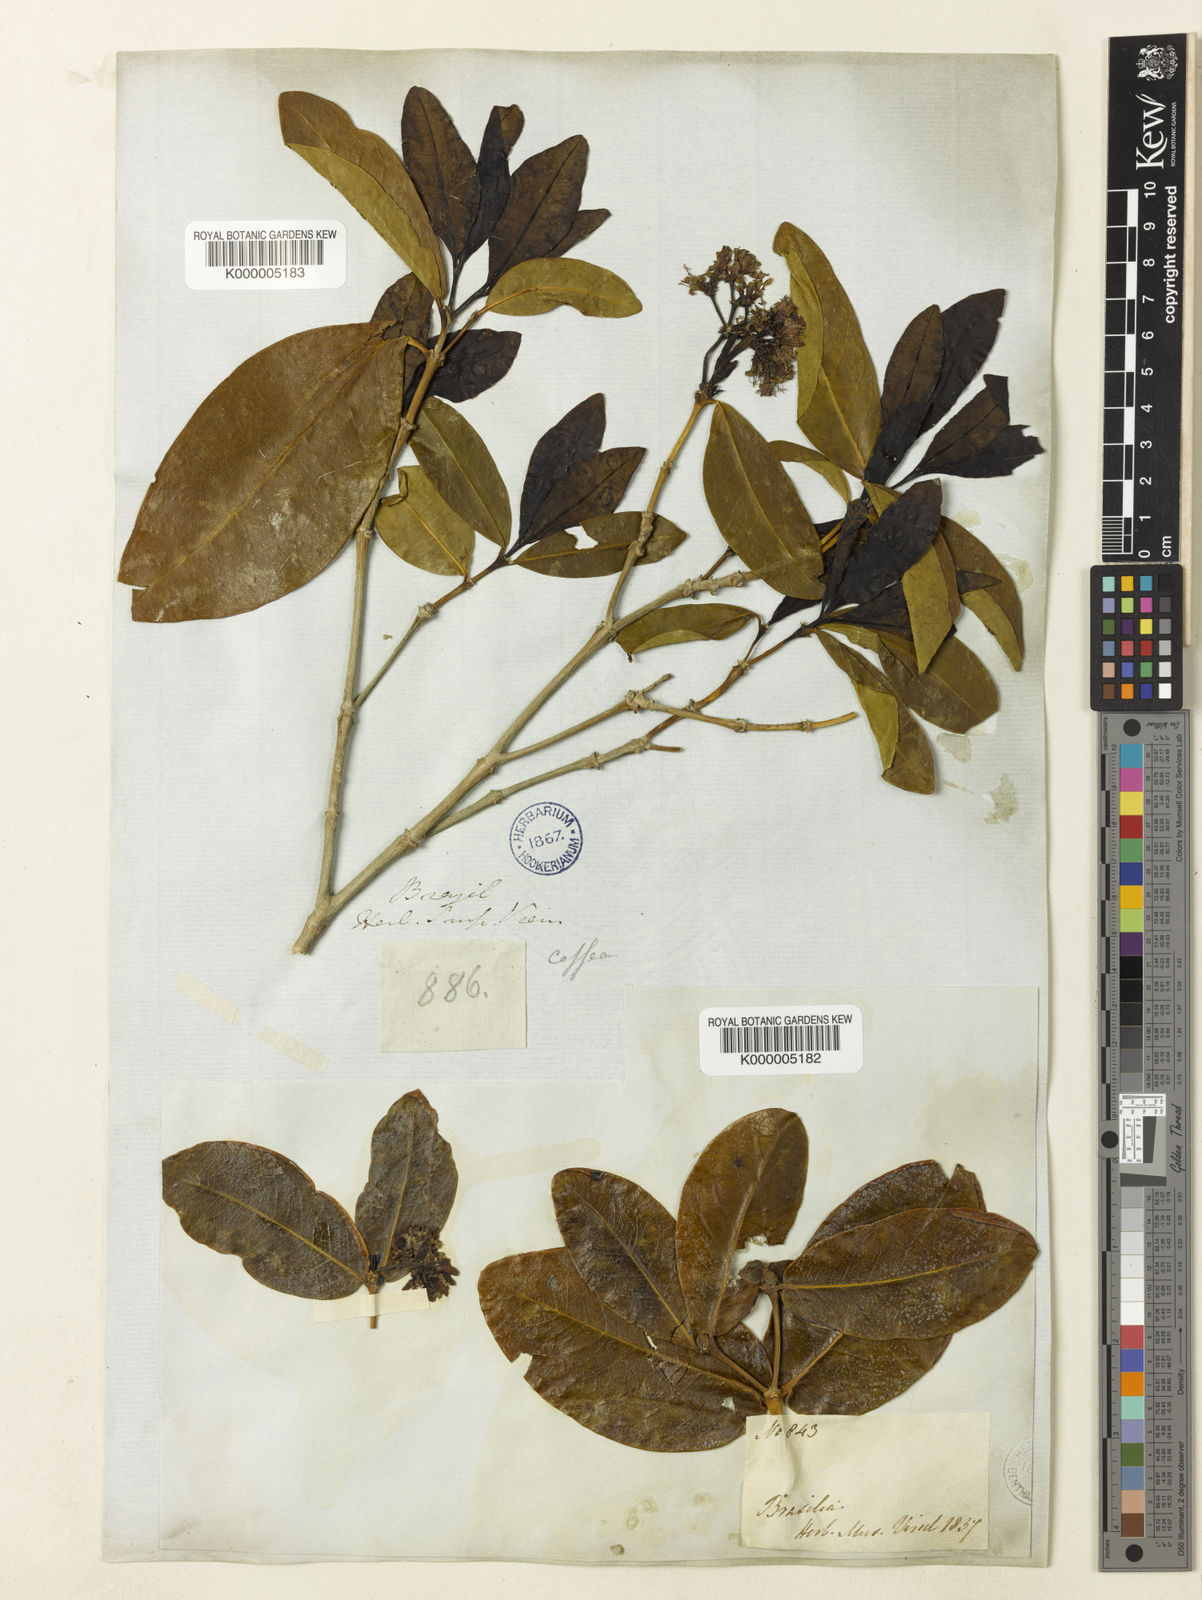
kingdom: Plantae
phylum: Tracheophyta
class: Magnoliopsida
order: Gentianales
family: Rubiaceae
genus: Rudgea
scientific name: Rudgea erioloba
